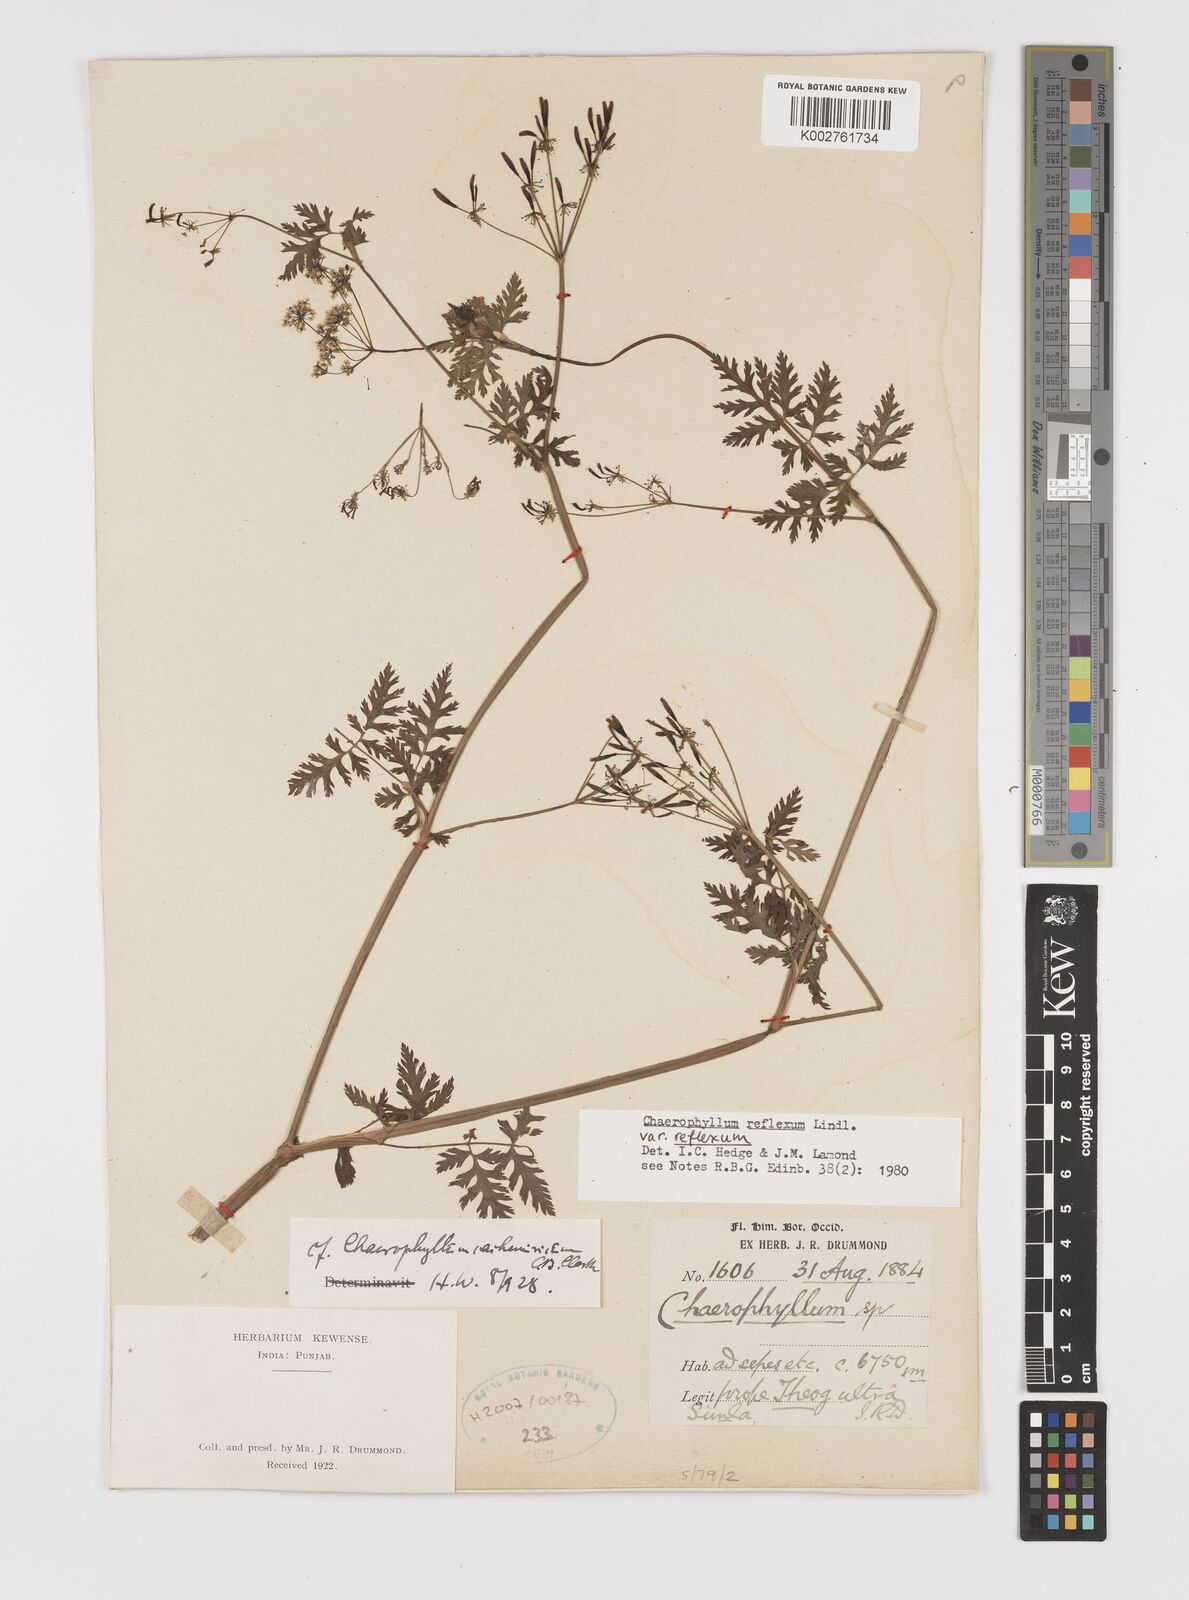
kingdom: Plantae
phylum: Tracheophyta
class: Magnoliopsida
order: Apiales
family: Apiaceae
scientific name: Apiaceae
